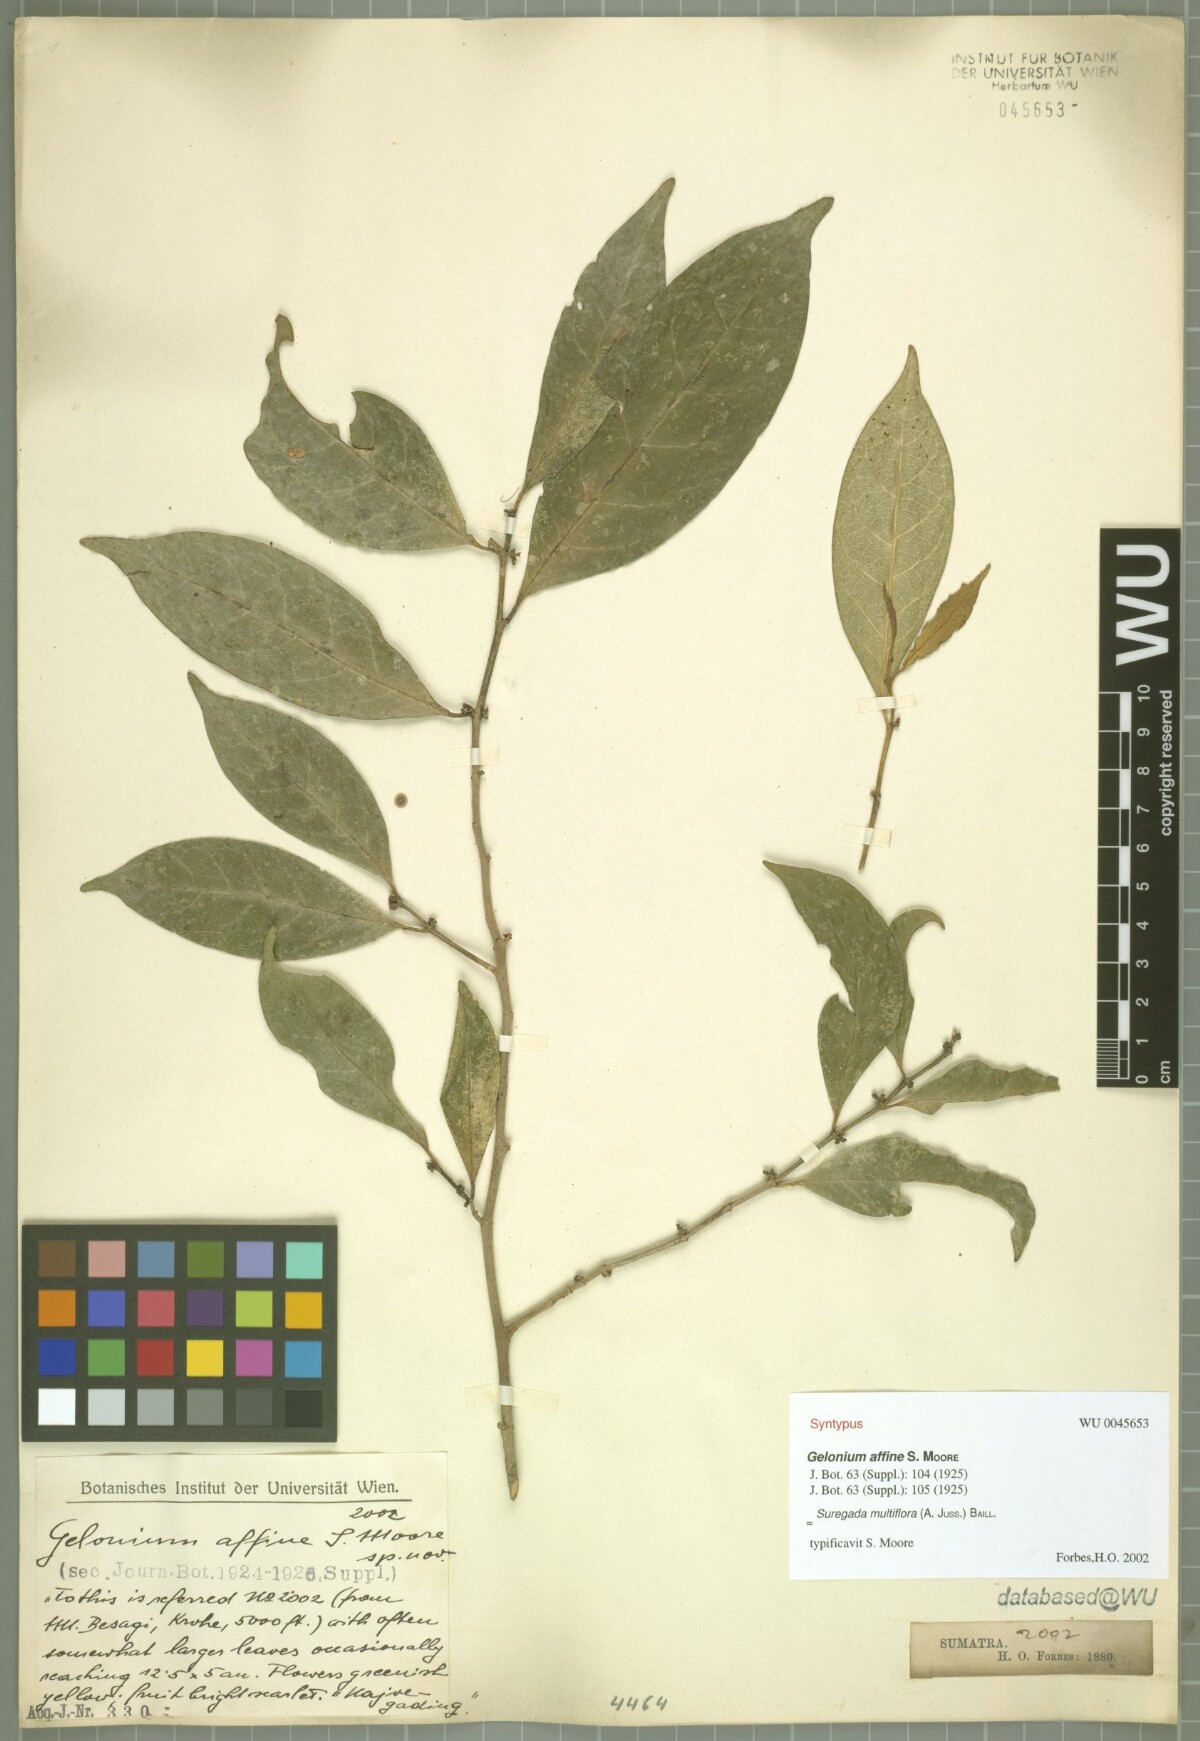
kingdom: Plantae
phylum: Tracheophyta
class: Magnoliopsida
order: Malpighiales
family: Euphorbiaceae
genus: Suregada
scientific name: Suregada multiflora
